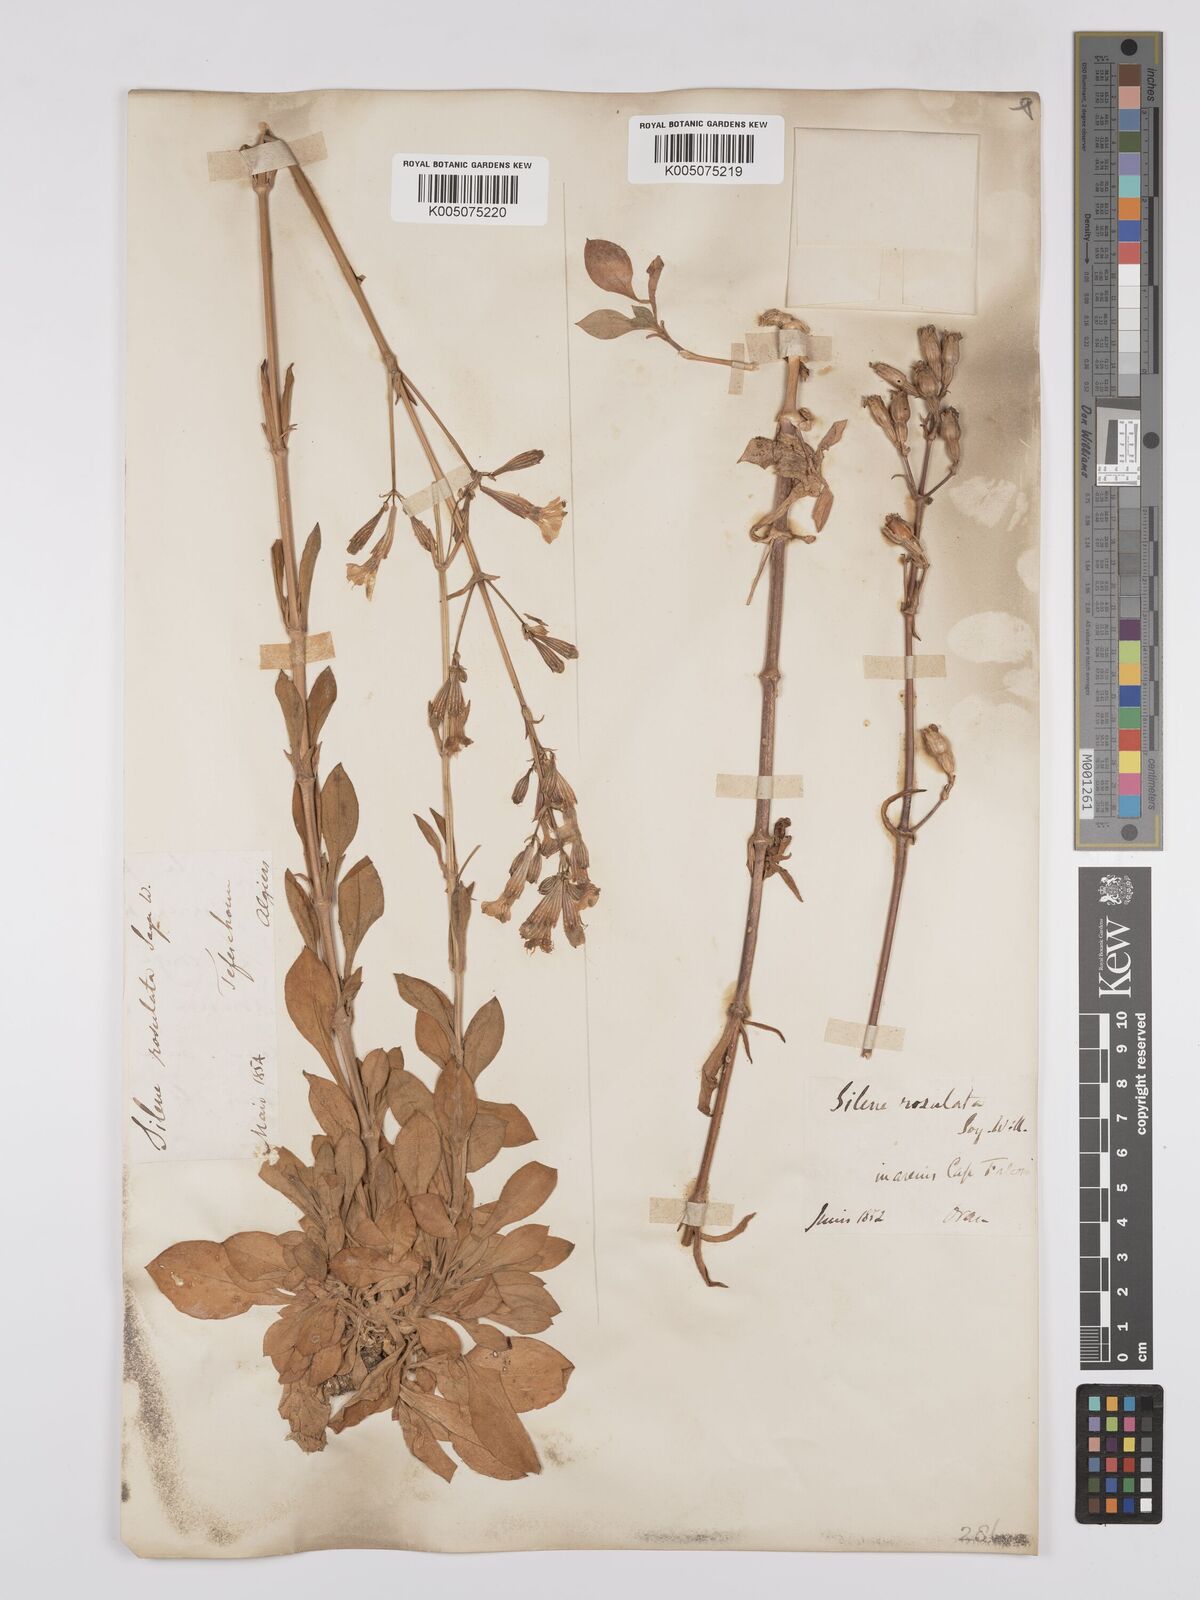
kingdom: Plantae
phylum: Tracheophyta
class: Magnoliopsida
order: Caryophyllales
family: Caryophyllaceae
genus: Silene
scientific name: Silene rosulata
